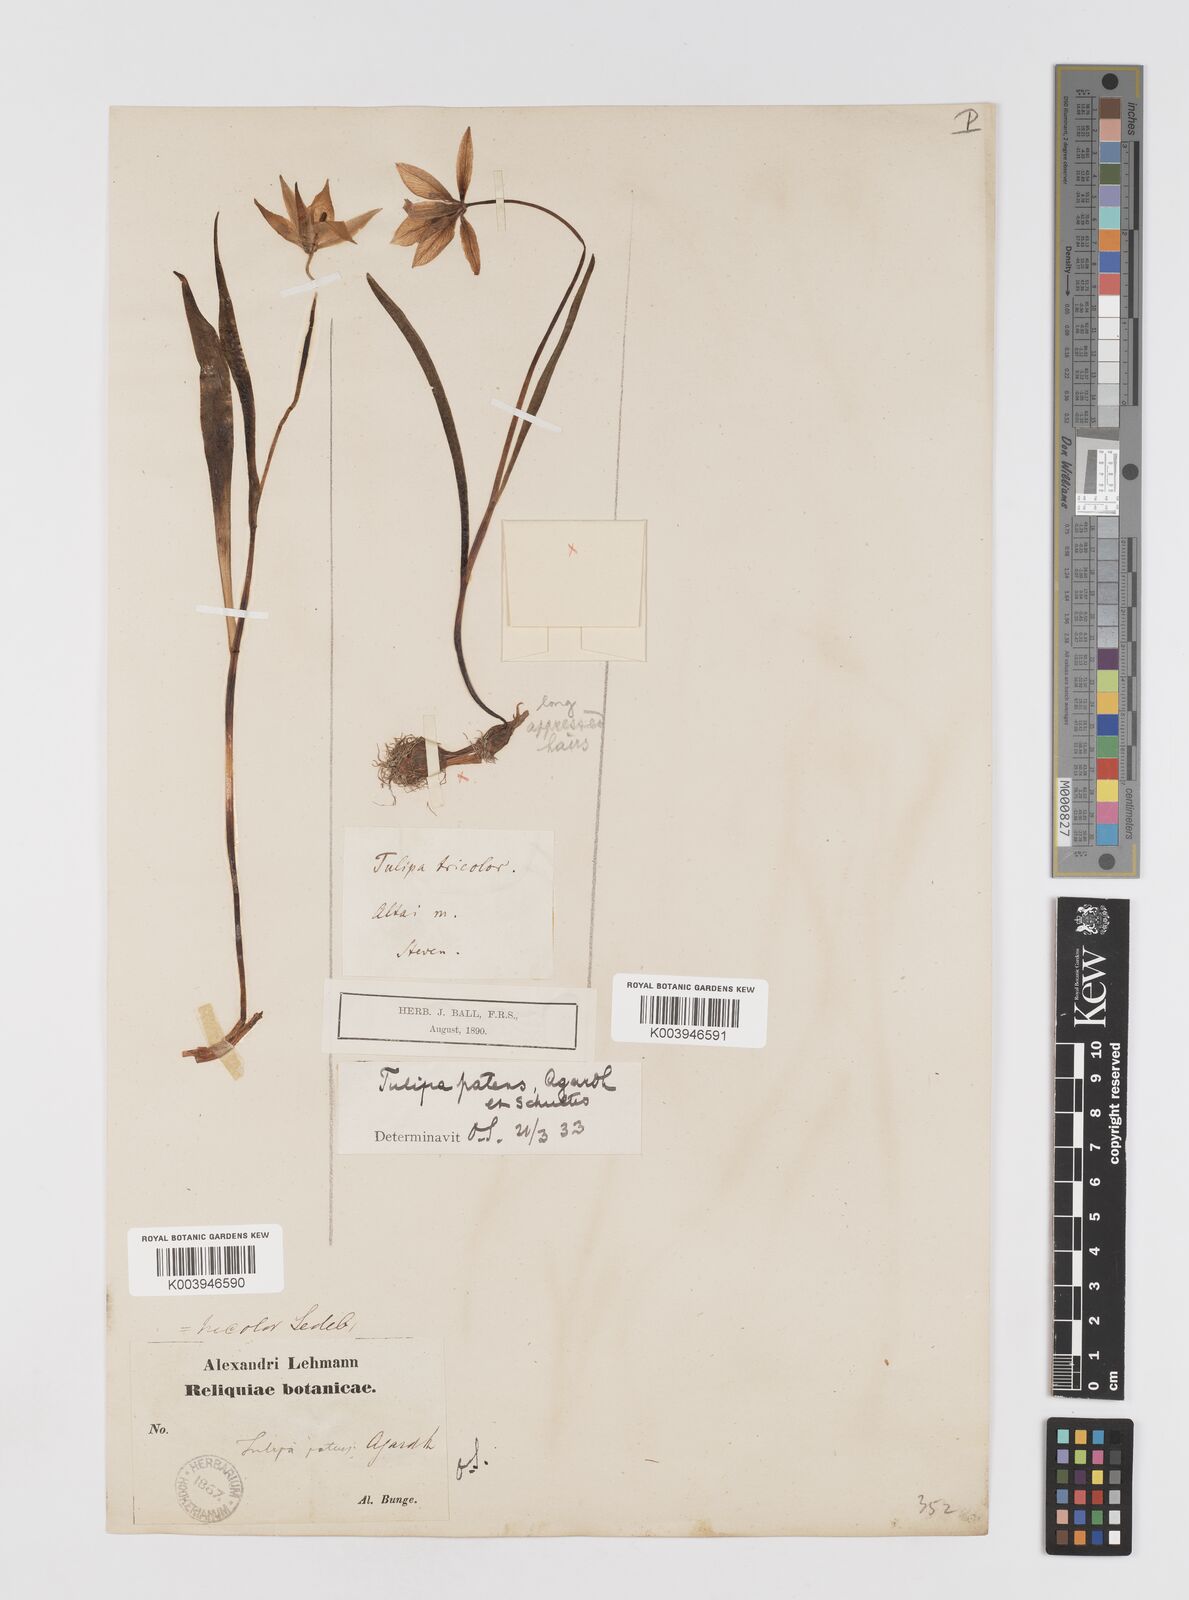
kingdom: Plantae
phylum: Tracheophyta
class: Liliopsida
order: Liliales
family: Liliaceae
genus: Tulipa
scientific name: Tulipa sylvestris
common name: Wild tulip
